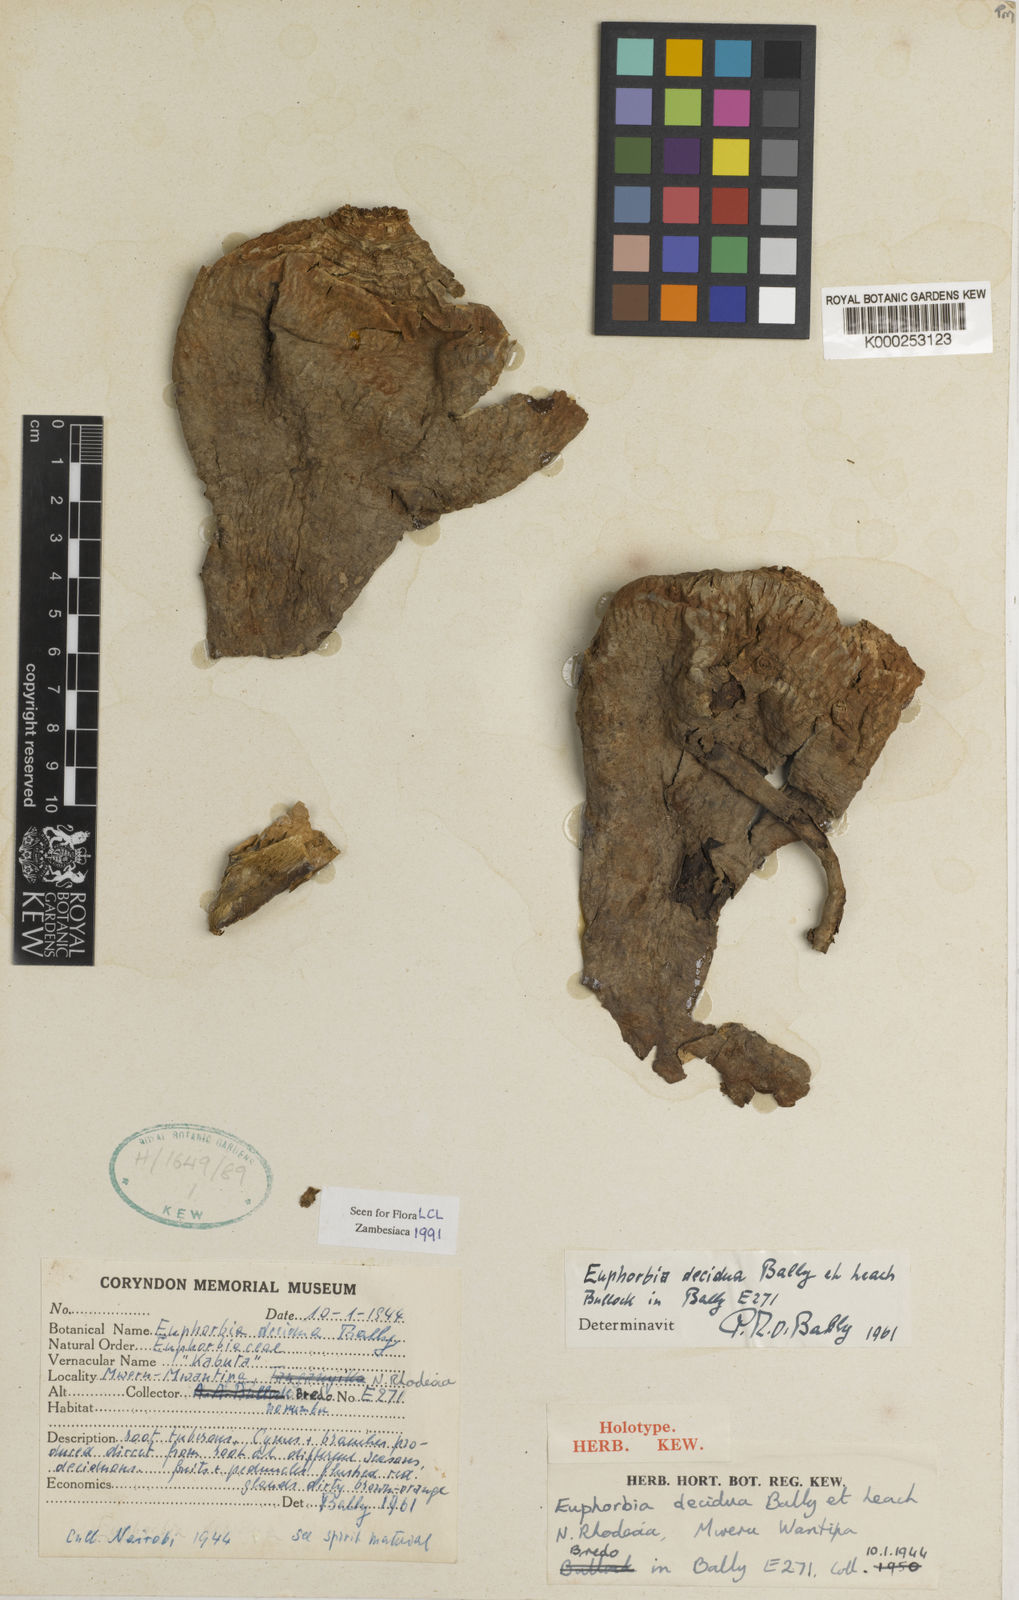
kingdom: Plantae
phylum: Tracheophyta
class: Magnoliopsida
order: Malpighiales
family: Euphorbiaceae
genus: Euphorbia
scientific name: Euphorbia decidua
